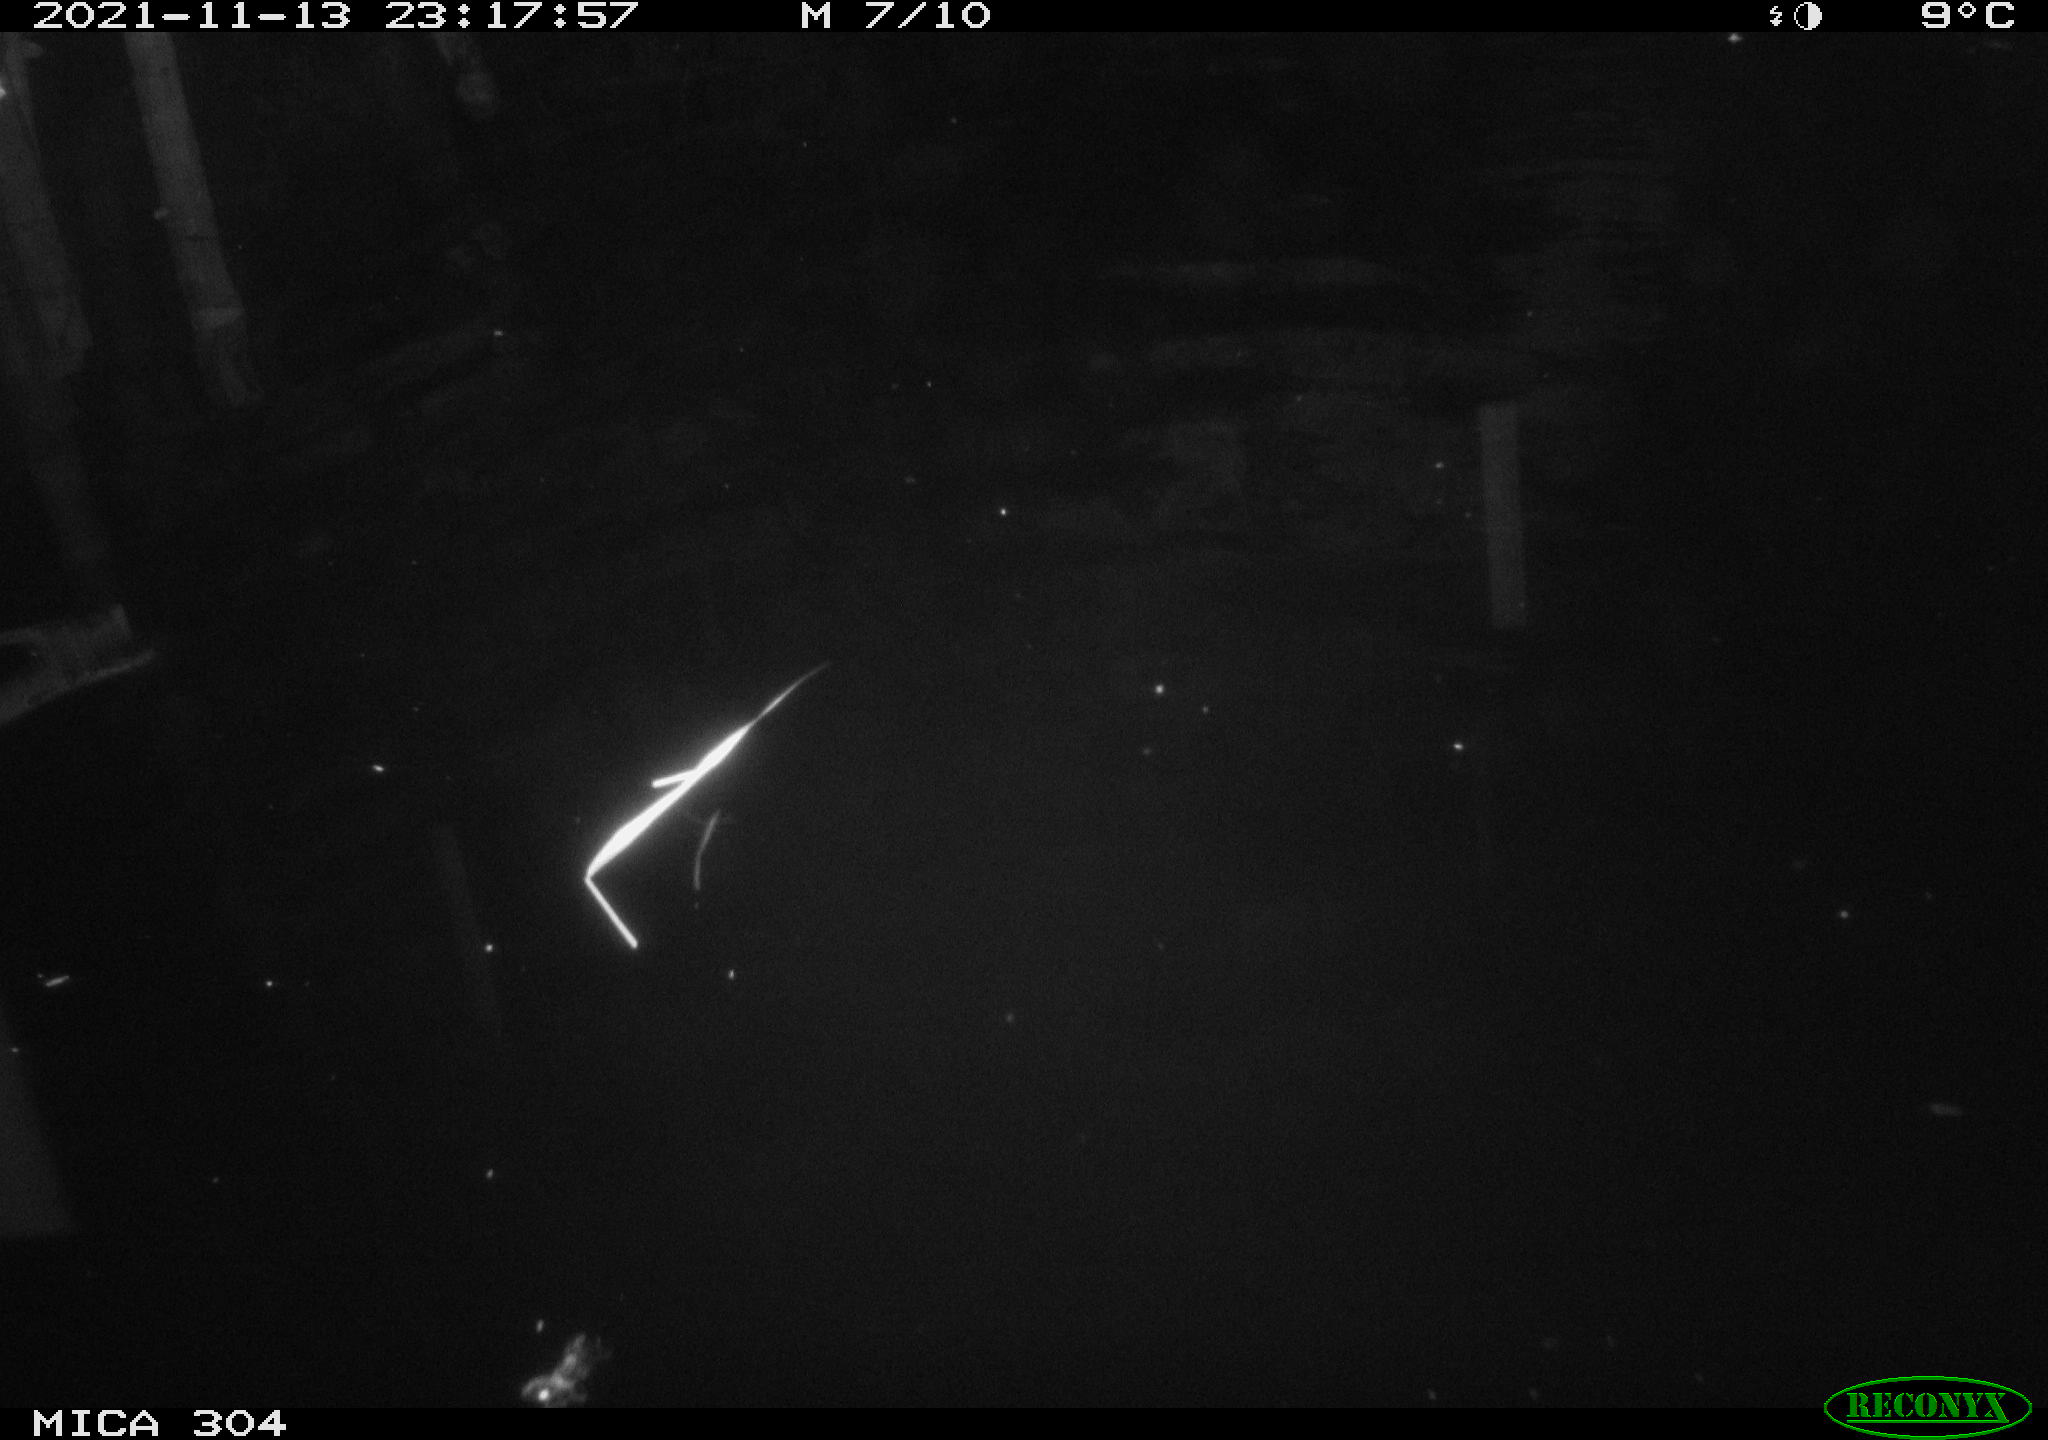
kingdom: Animalia
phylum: Chordata
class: Mammalia
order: Rodentia
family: Cricetidae
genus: Ondatra
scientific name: Ondatra zibethicus
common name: Muskrat
